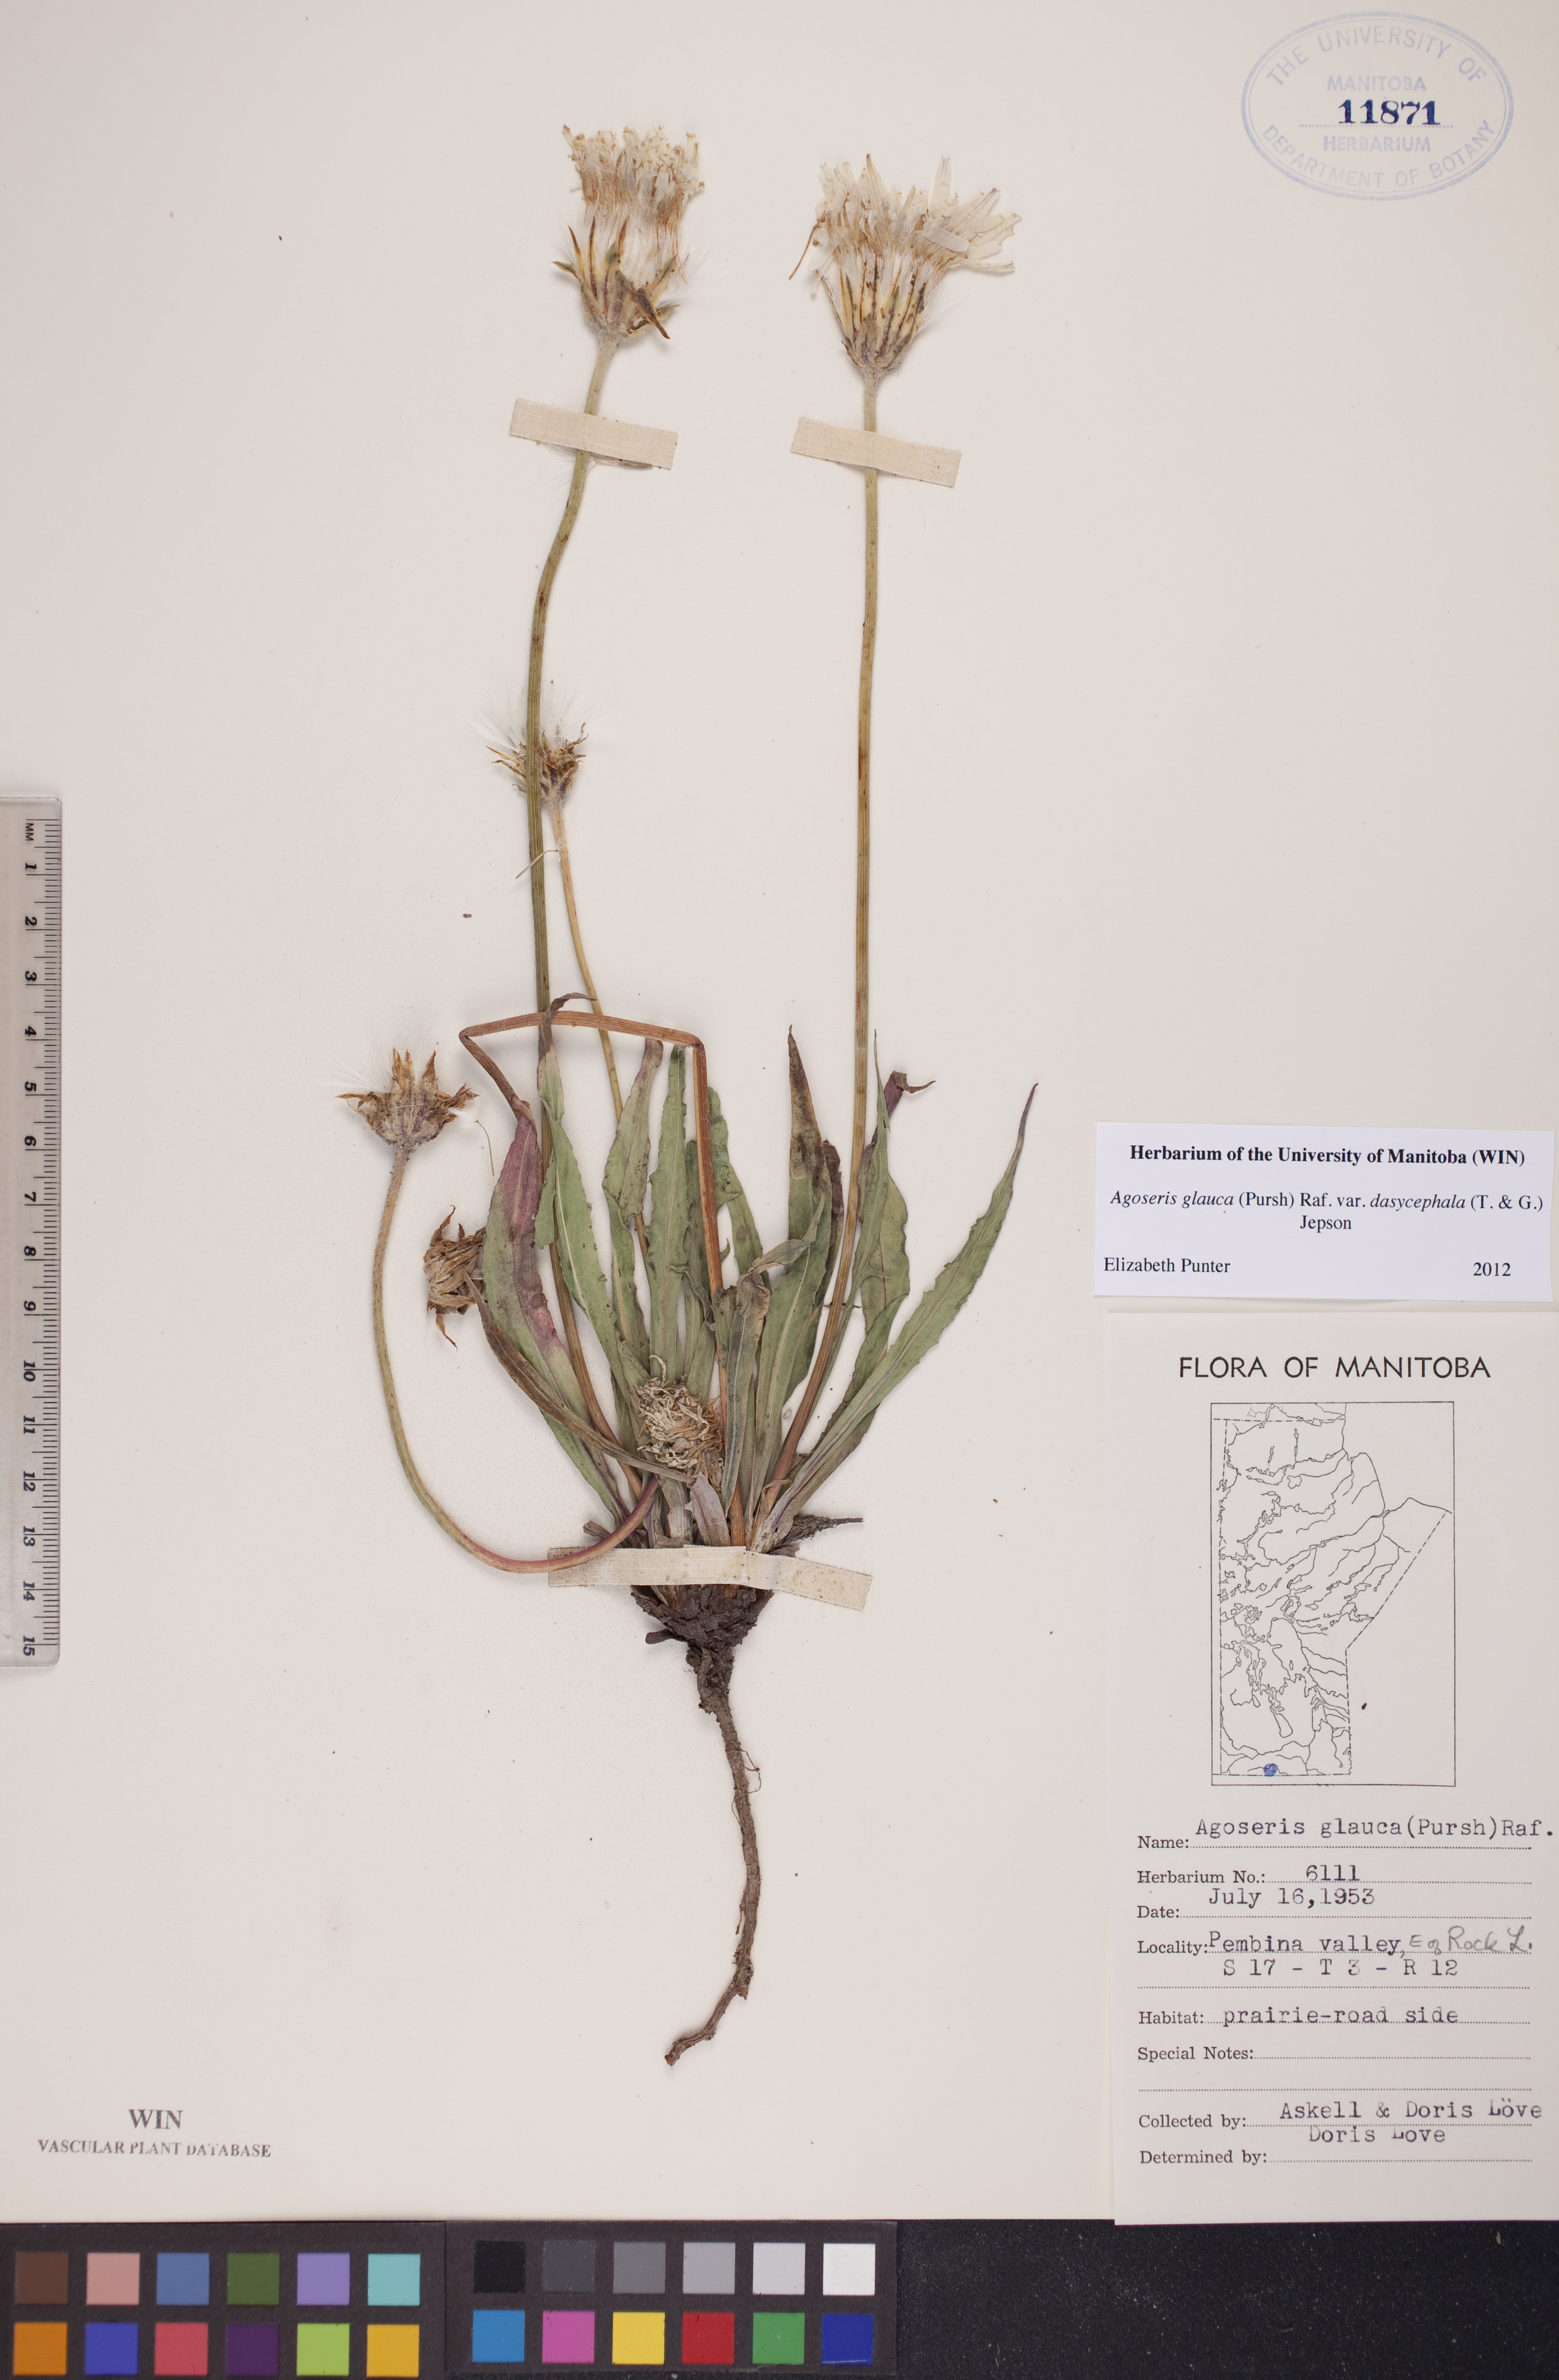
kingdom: Plantae
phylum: Tracheophyta
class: Magnoliopsida
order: Asterales
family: Asteraceae
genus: Agoseris
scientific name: Agoseris glauca
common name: Prairie agoseris
